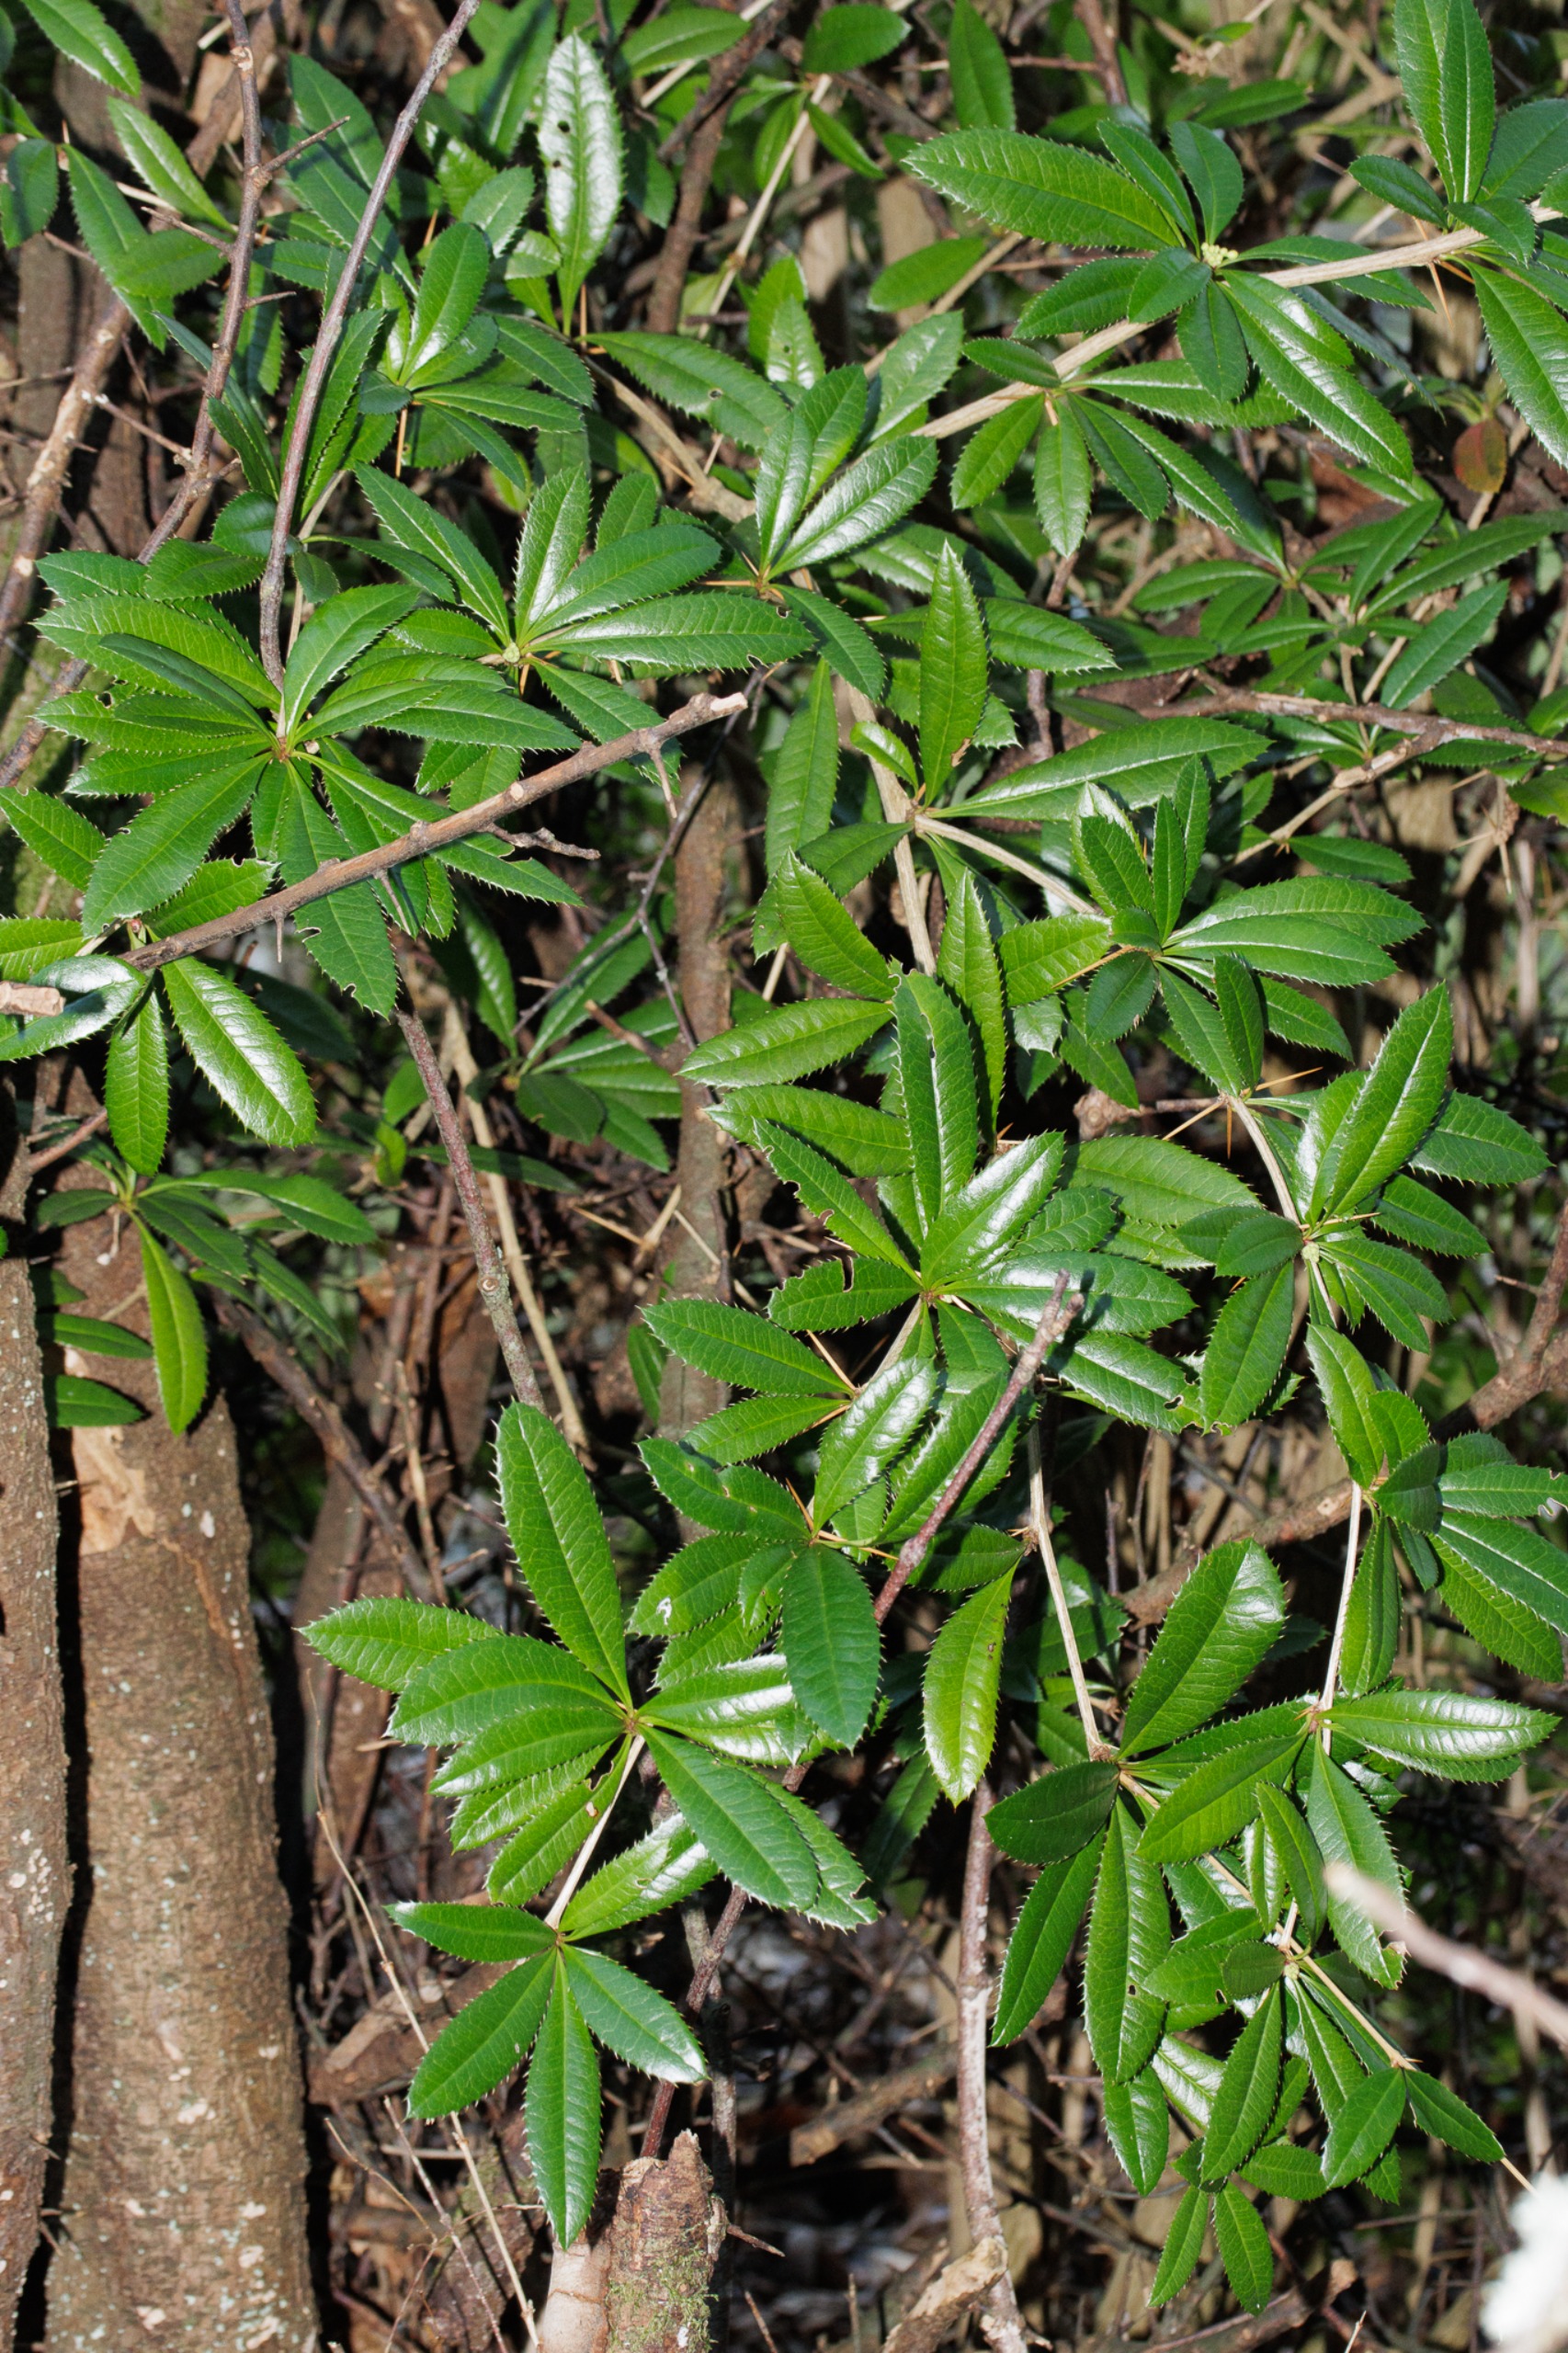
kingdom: Plantae
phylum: Tracheophyta
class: Magnoliopsida
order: Ranunculales
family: Berberidaceae
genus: Berberis
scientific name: Berberis julianae
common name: Julianes berberis
